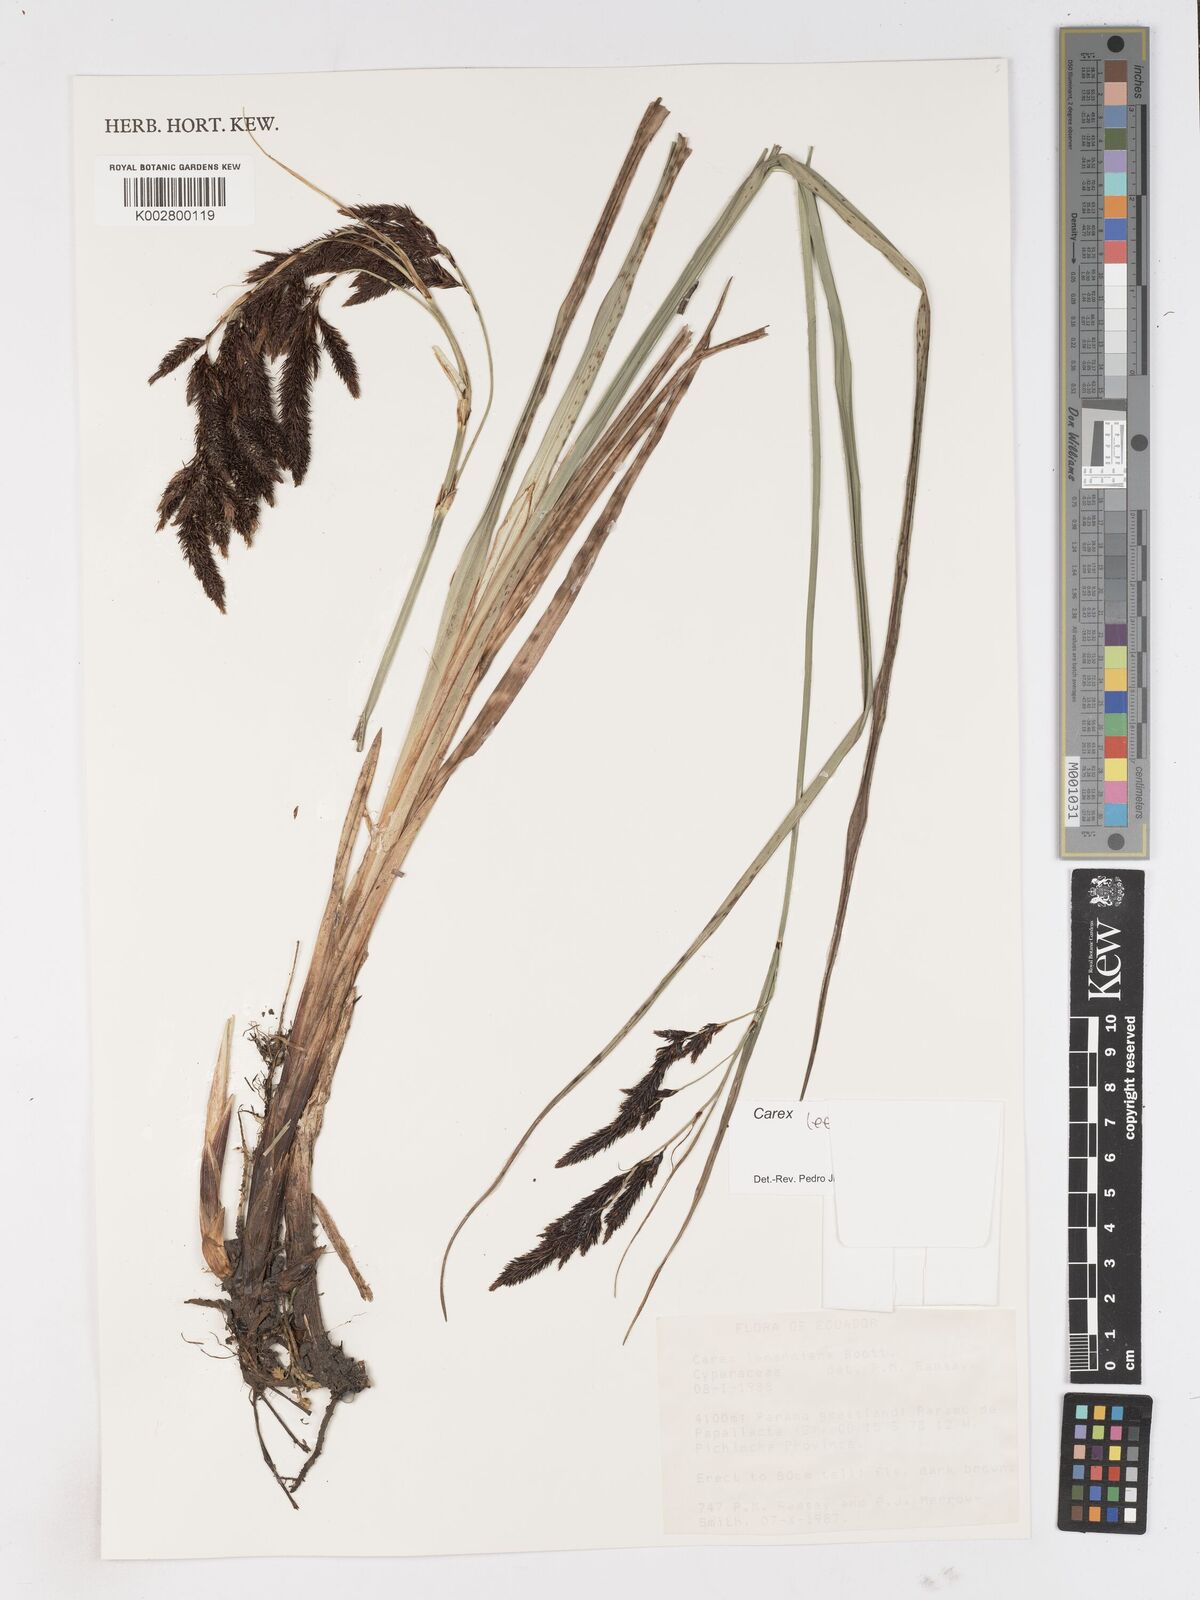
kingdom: Plantae
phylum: Tracheophyta
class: Liliopsida
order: Poales
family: Cyperaceae
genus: Carex
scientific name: Carex lemanniana
